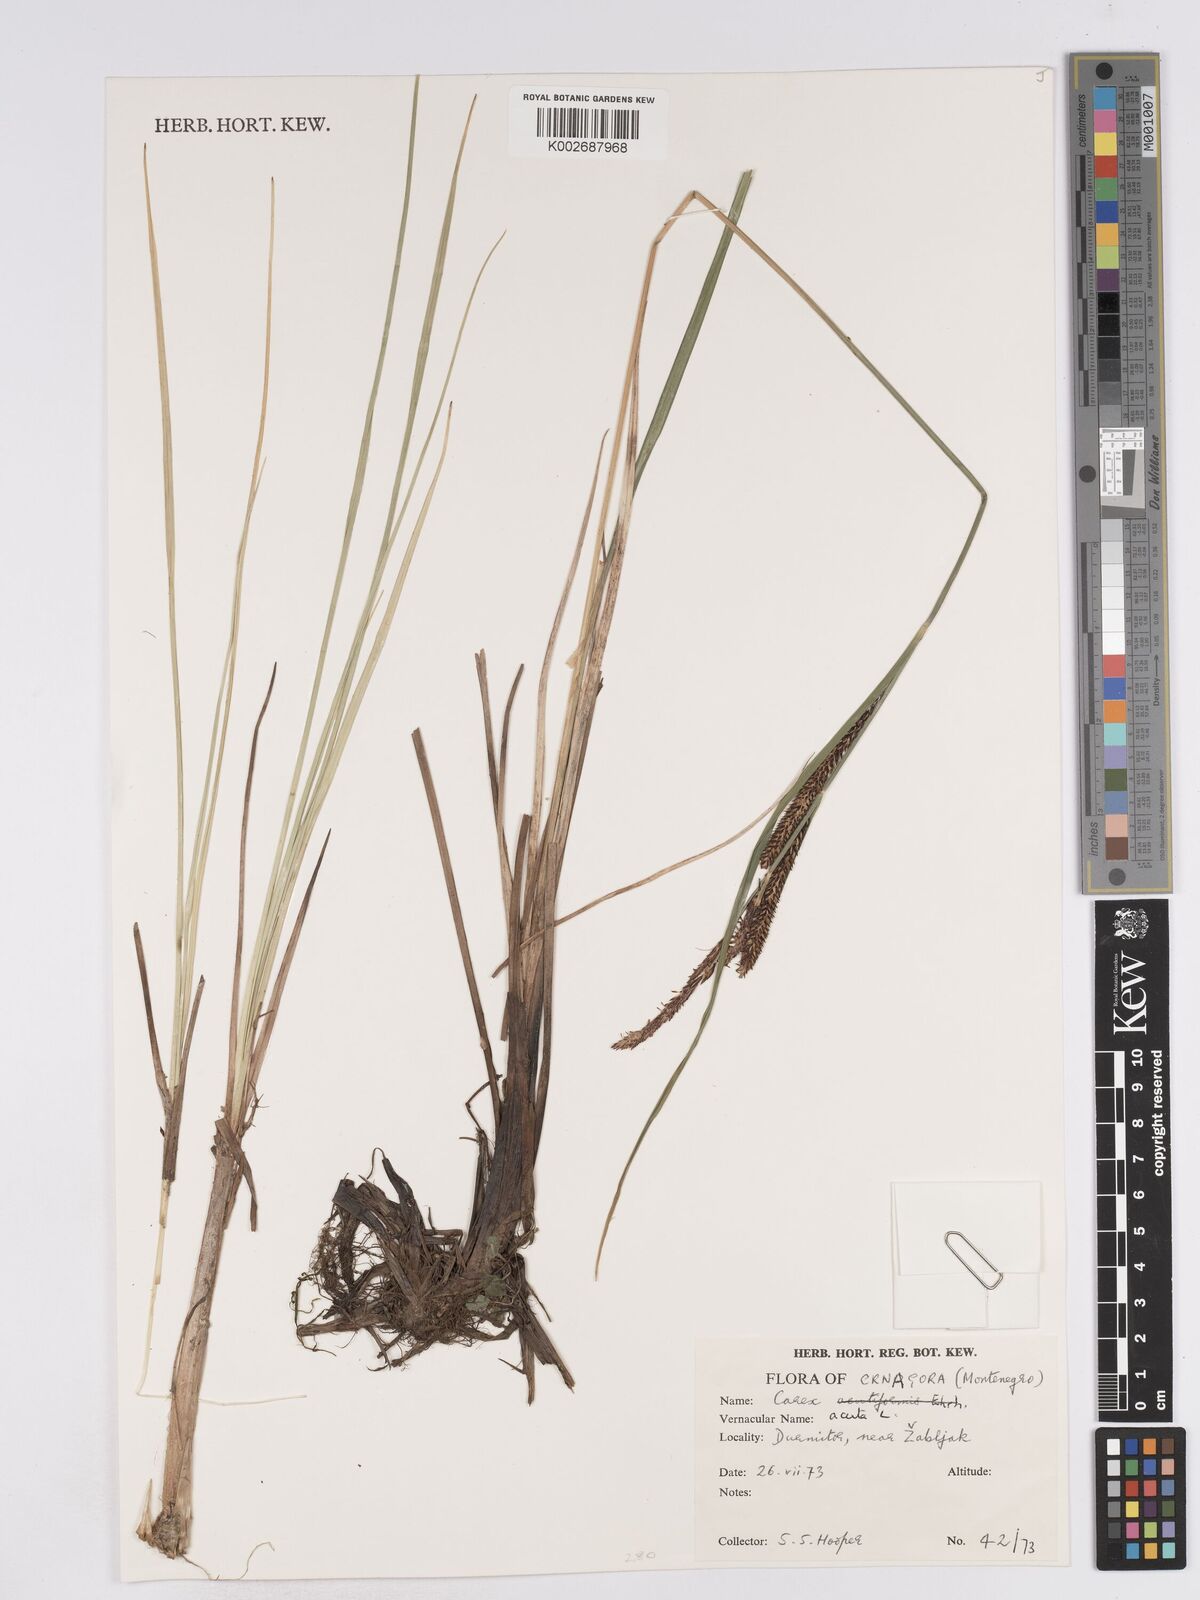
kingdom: Plantae
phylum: Tracheophyta
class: Liliopsida
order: Poales
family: Cyperaceae
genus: Carex
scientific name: Carex acuta
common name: Slender tufted-sedge
